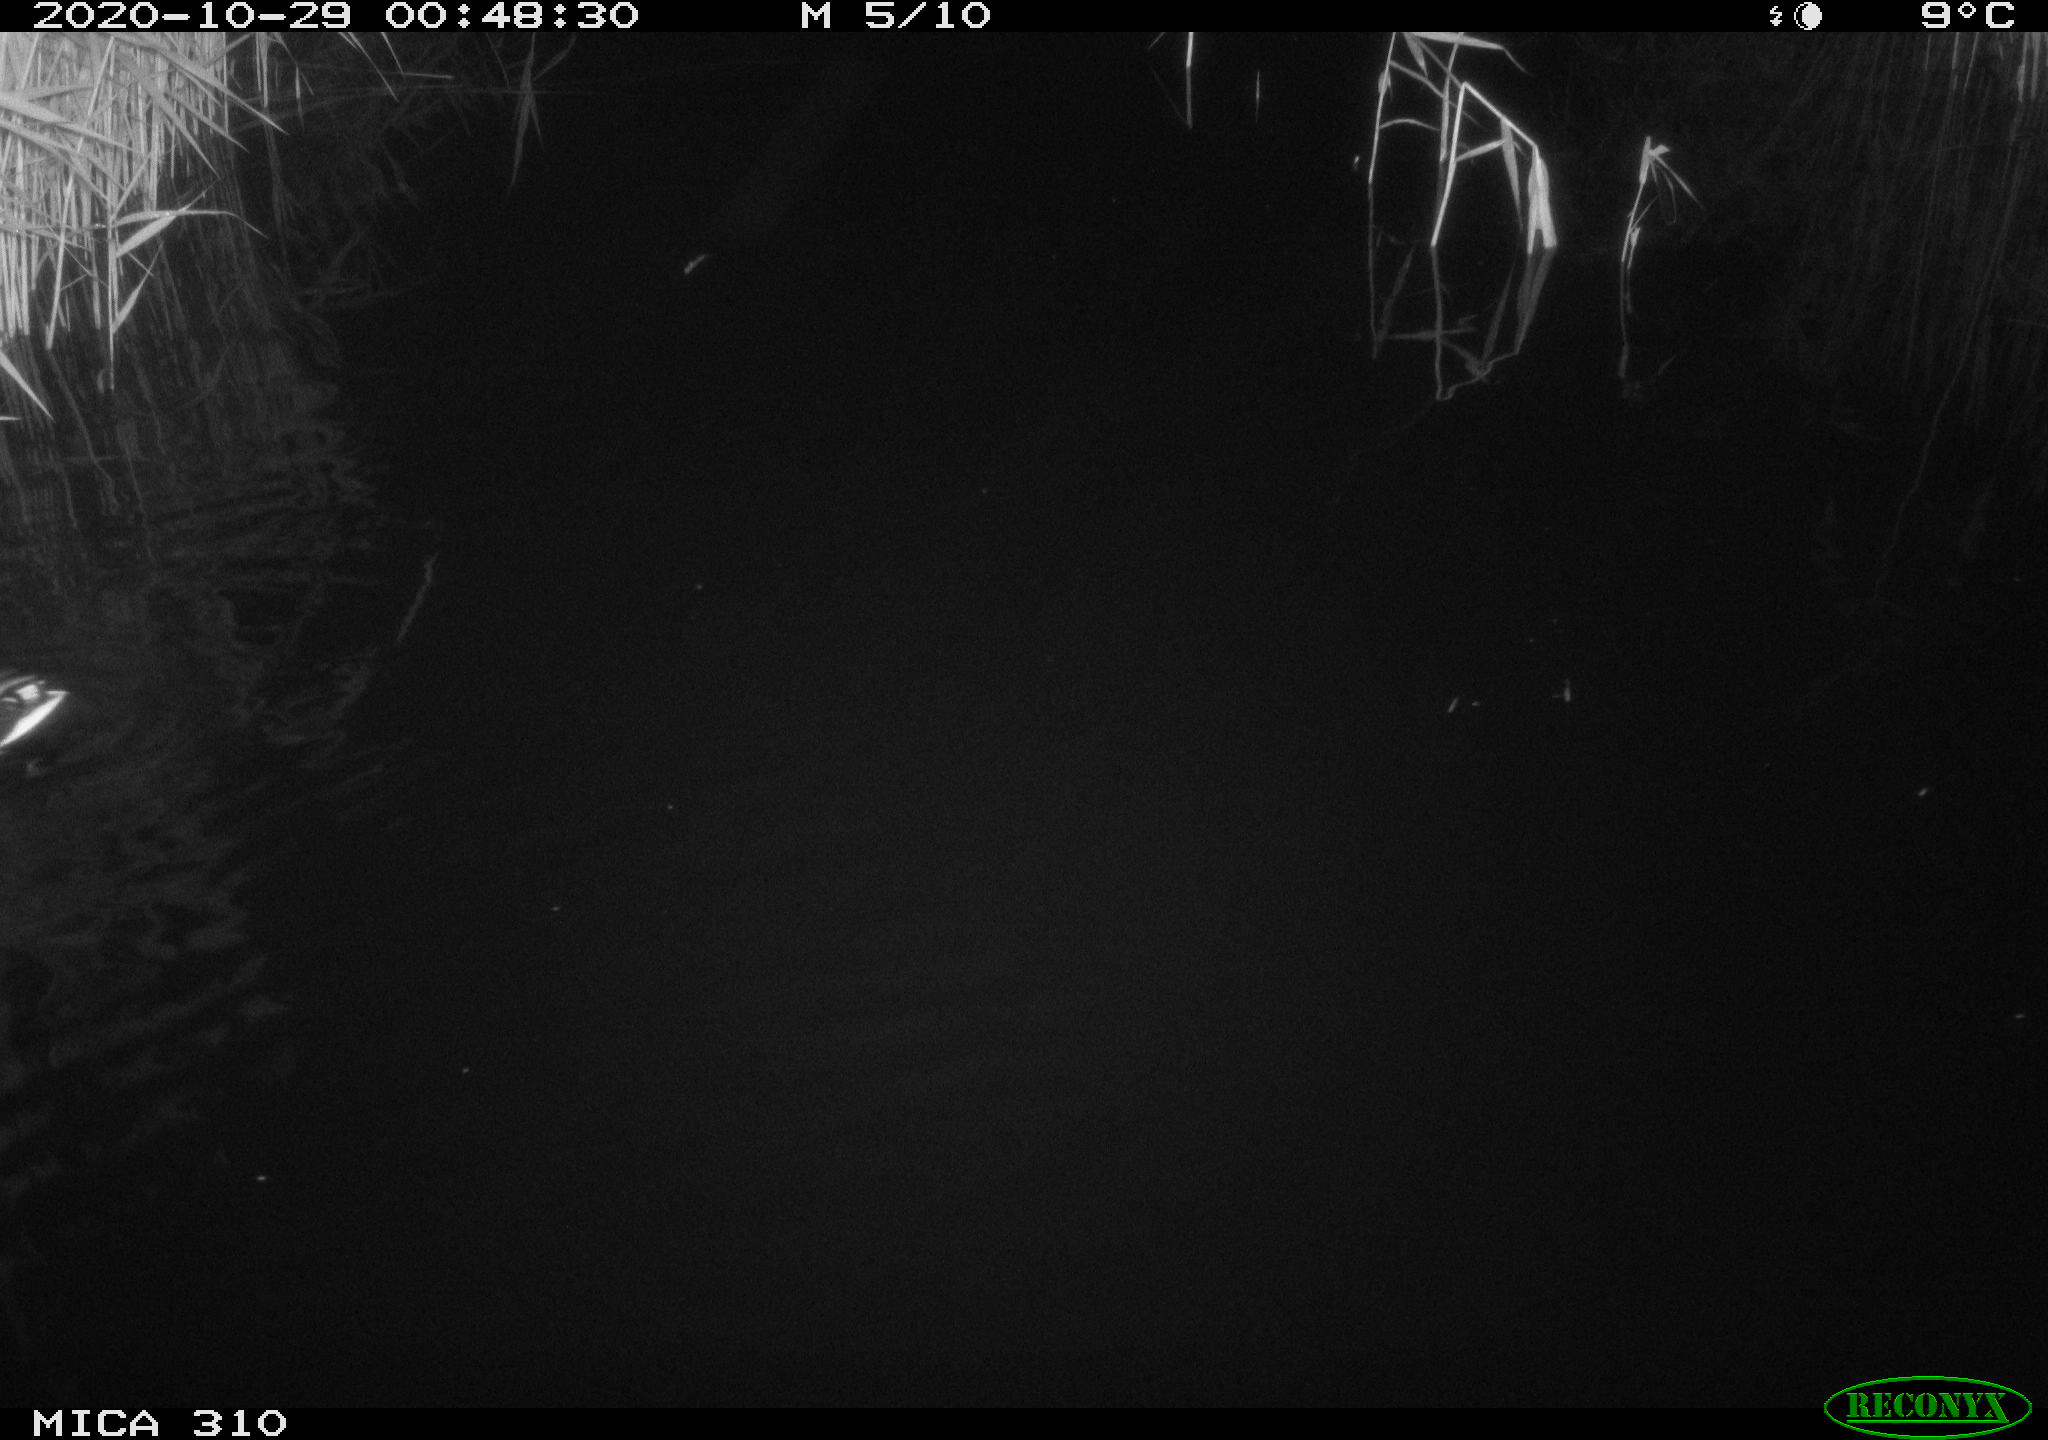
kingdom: Animalia
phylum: Chordata
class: Aves
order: Anseriformes
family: Anatidae
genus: Anas
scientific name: Anas platyrhynchos
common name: Mallard
